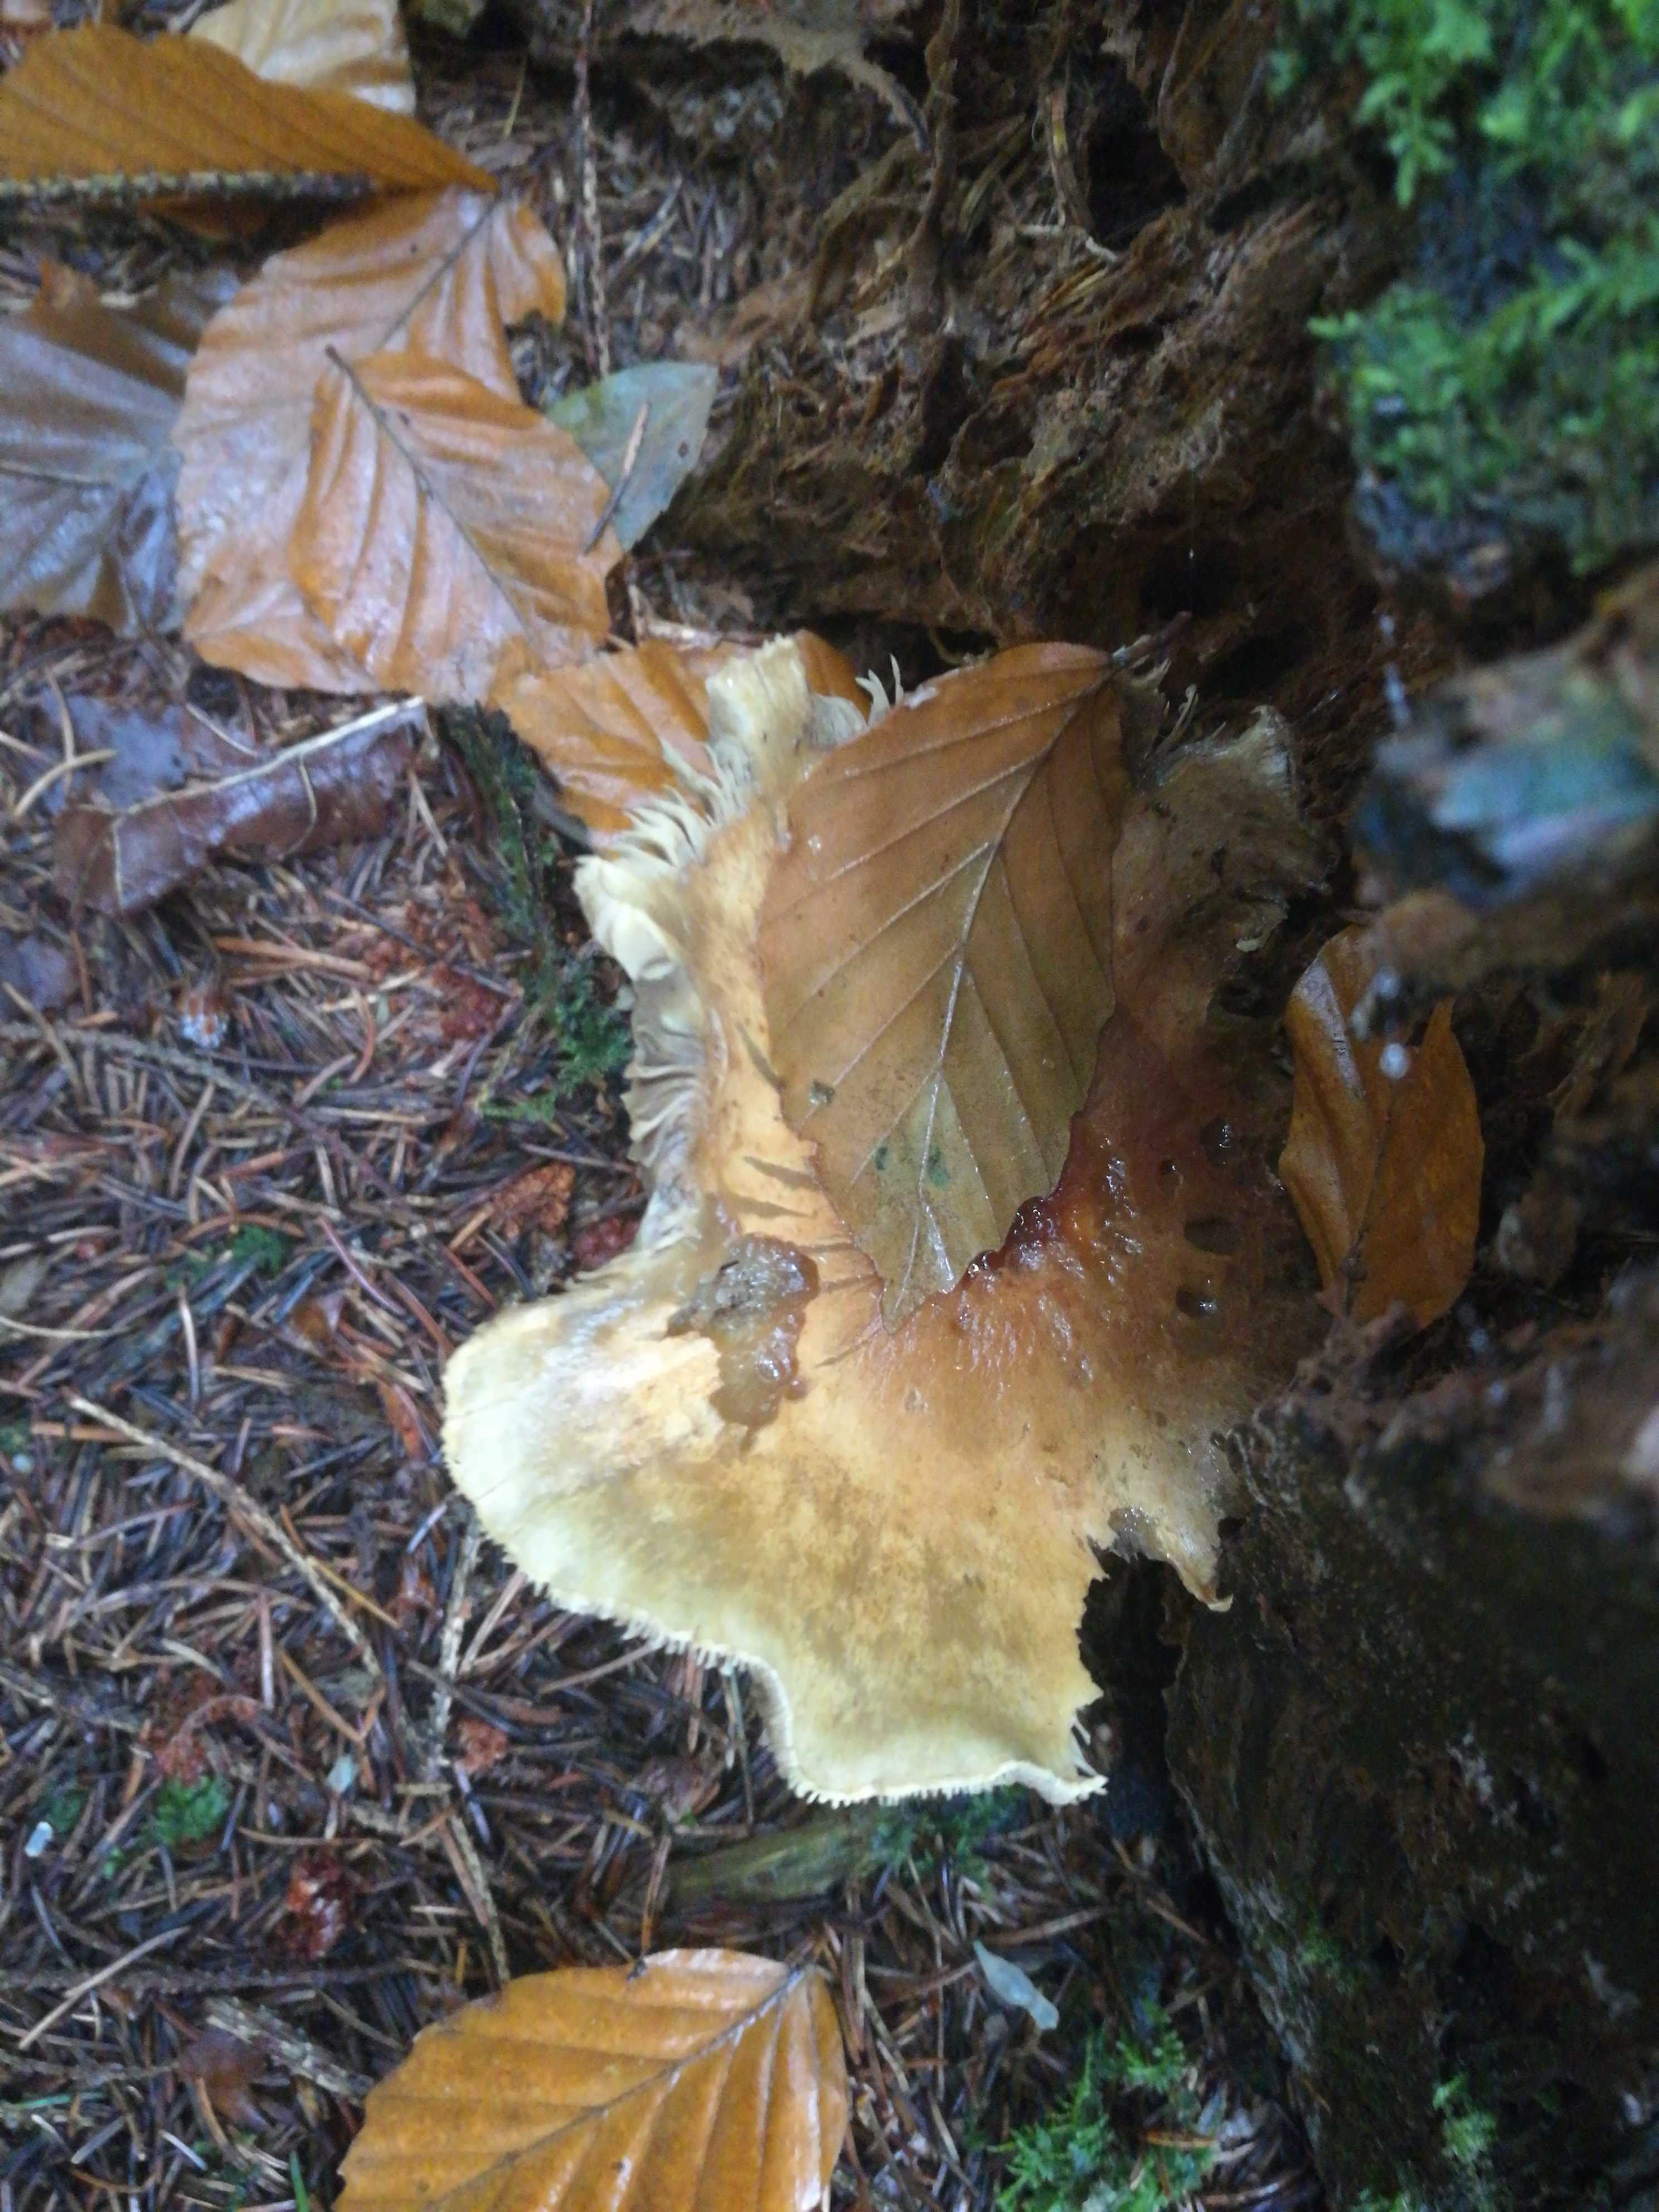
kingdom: Plantae
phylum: Bryophyta
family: Agaricomycetidae
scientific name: Agaricomycetidae
